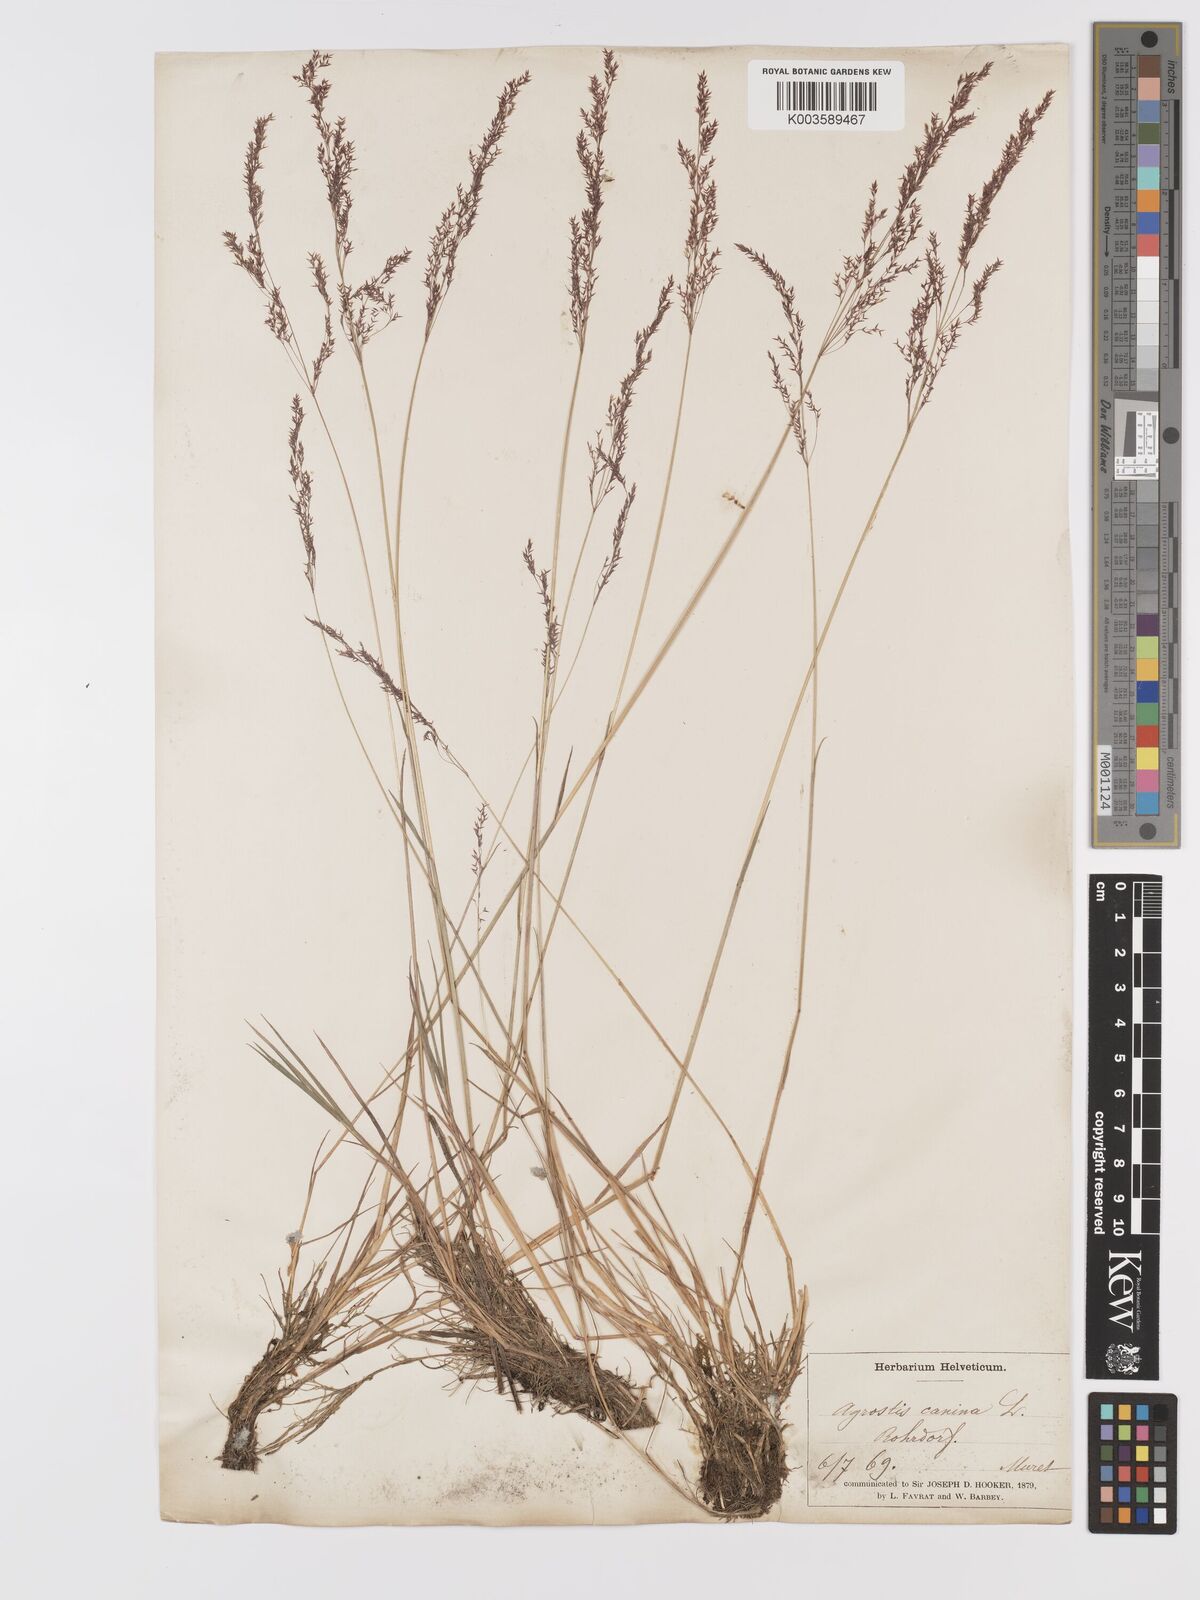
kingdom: Plantae
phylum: Tracheophyta
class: Liliopsida
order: Poales
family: Poaceae
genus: Agrostis
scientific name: Agrostis canina
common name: Velvet bent
